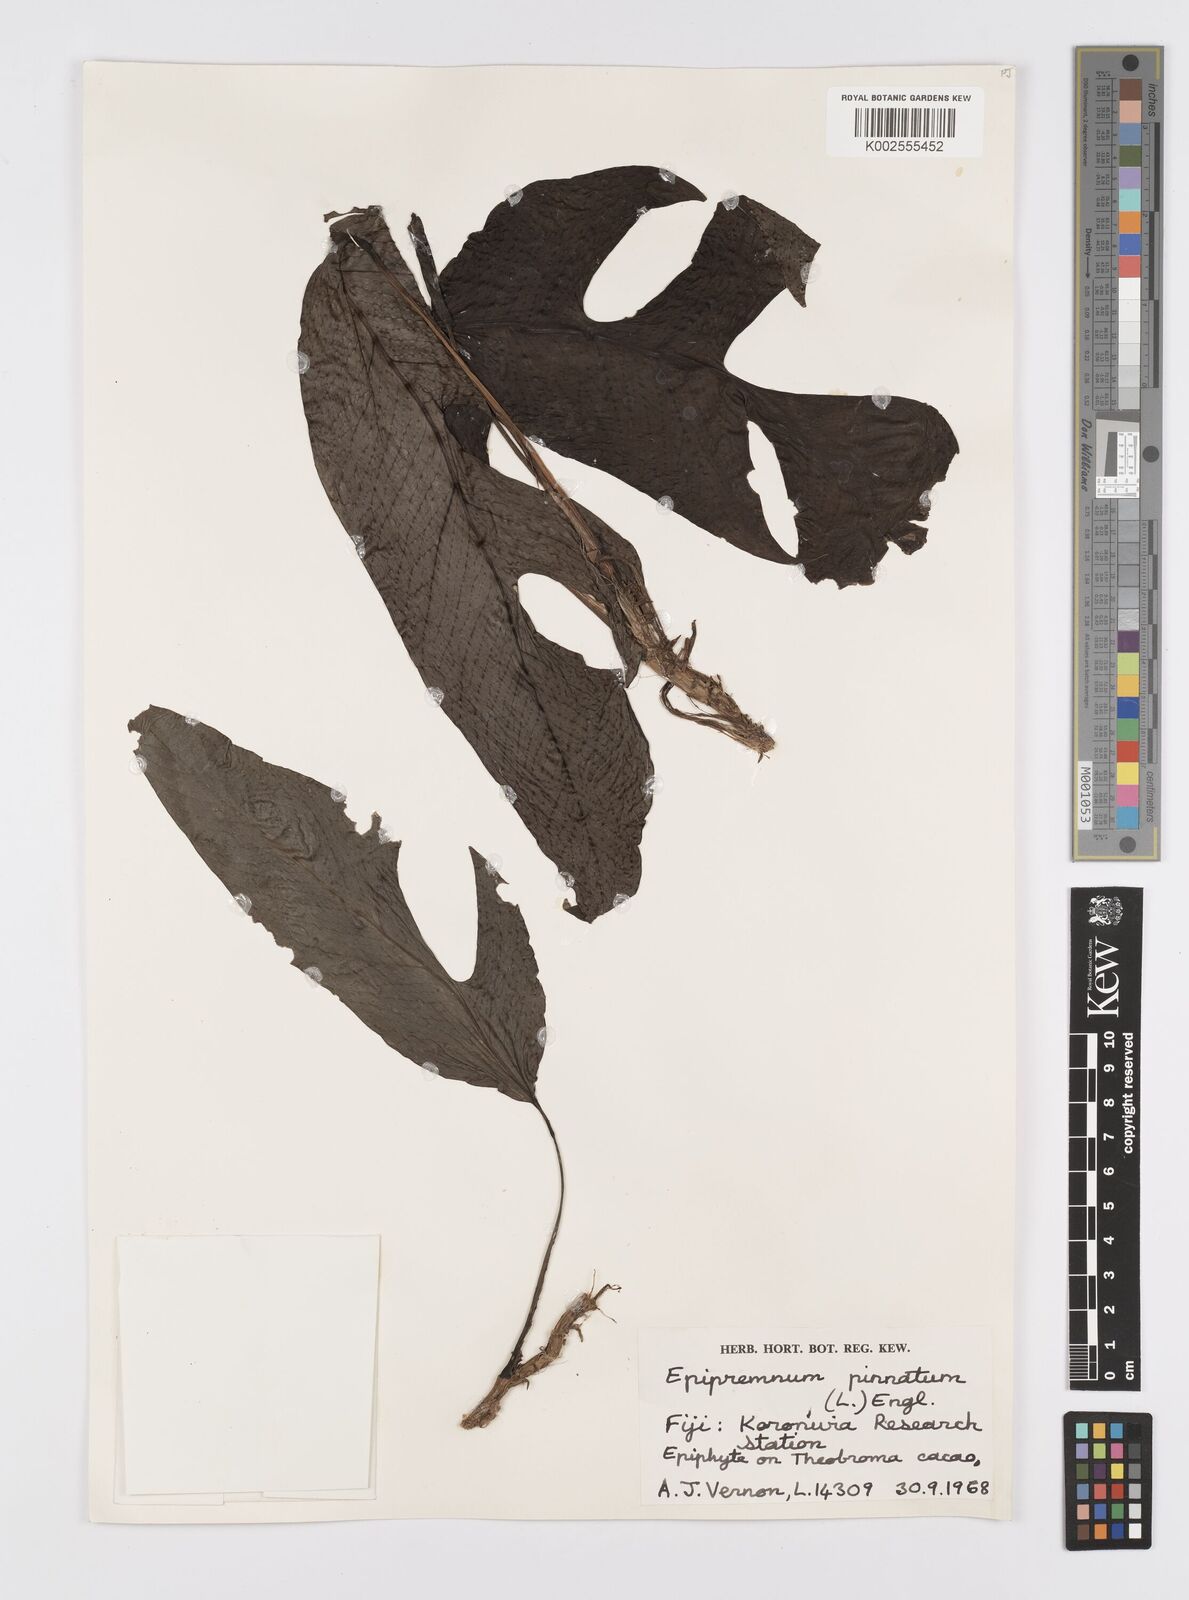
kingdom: Plantae
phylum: Tracheophyta
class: Liliopsida
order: Alismatales
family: Araceae
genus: Epipremnum
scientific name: Epipremnum pinnatum
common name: Centipede tongavine
